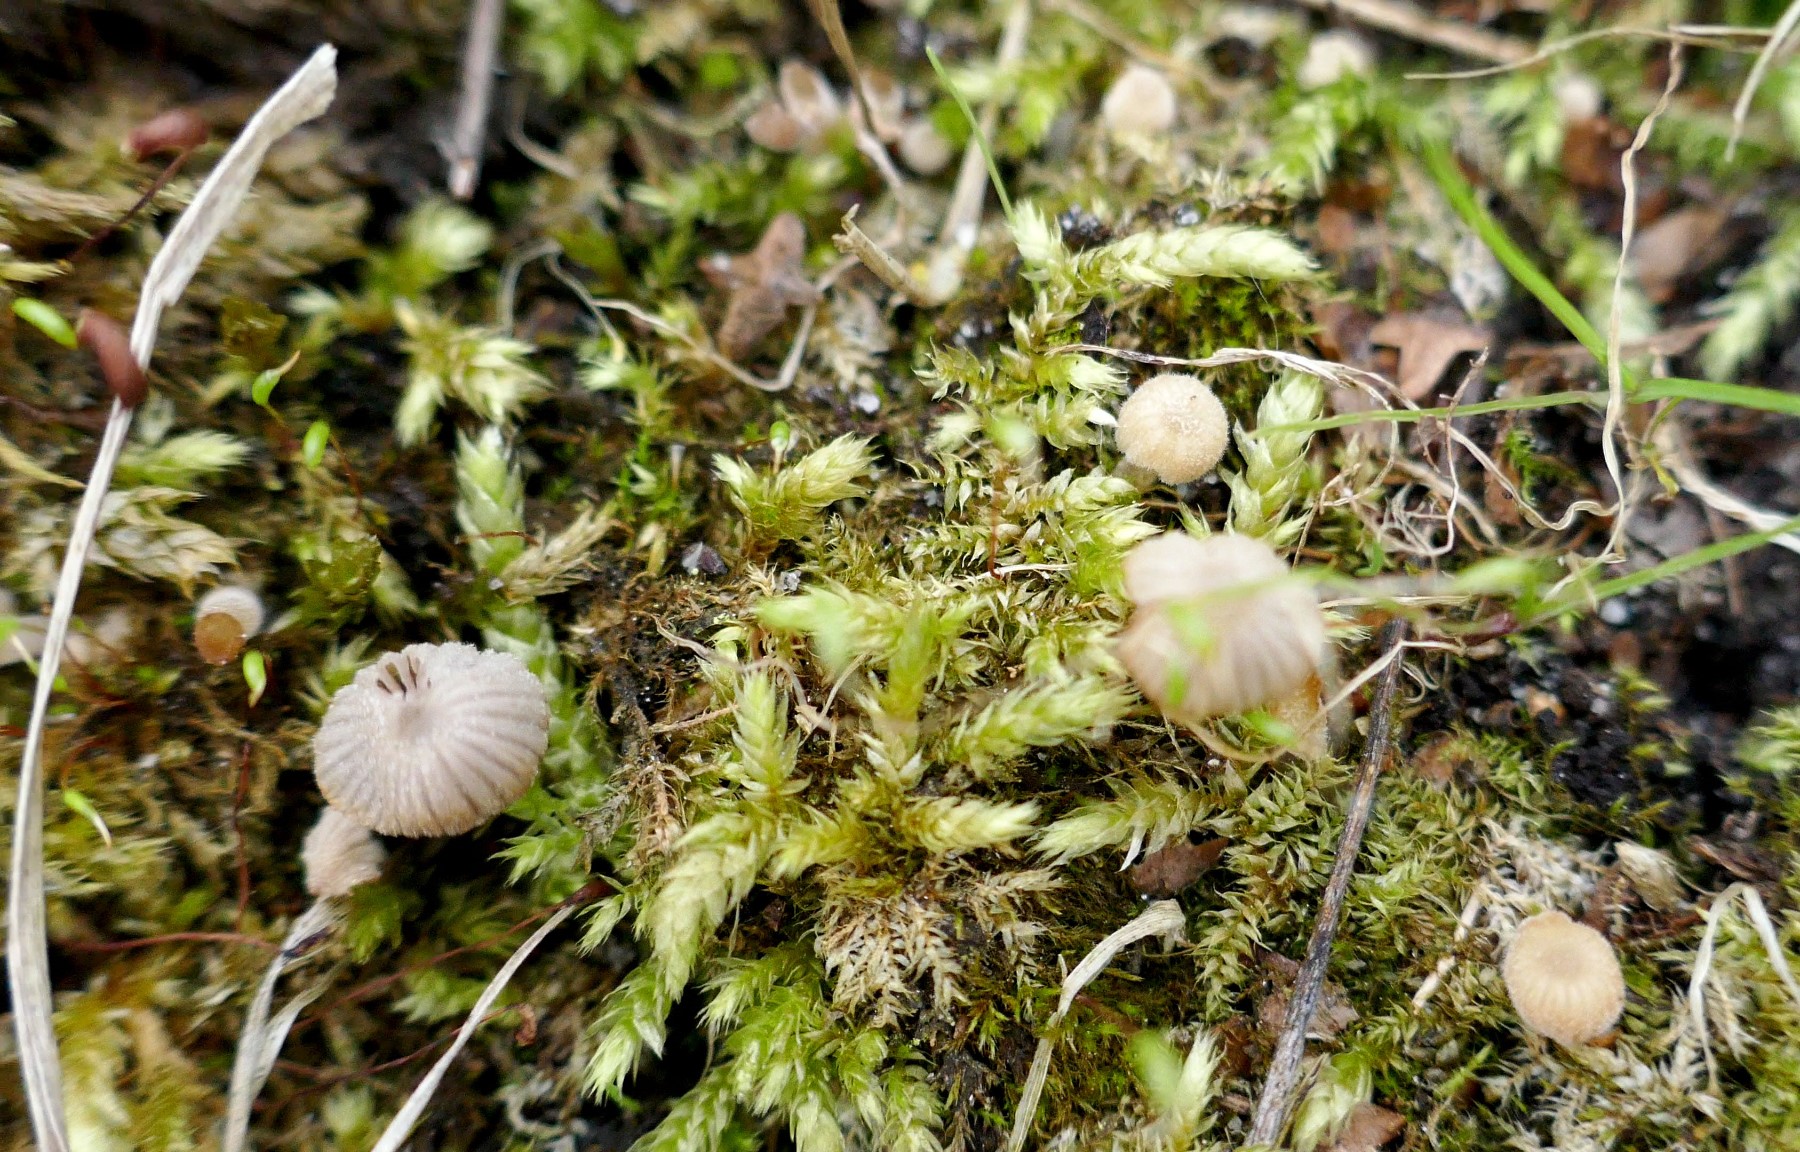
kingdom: Fungi
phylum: Basidiomycota
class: Agaricomycetes
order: Agaricales
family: Psathyrellaceae
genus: Coprinellus
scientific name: Coprinellus disseminatus
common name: bredsået blækhat
